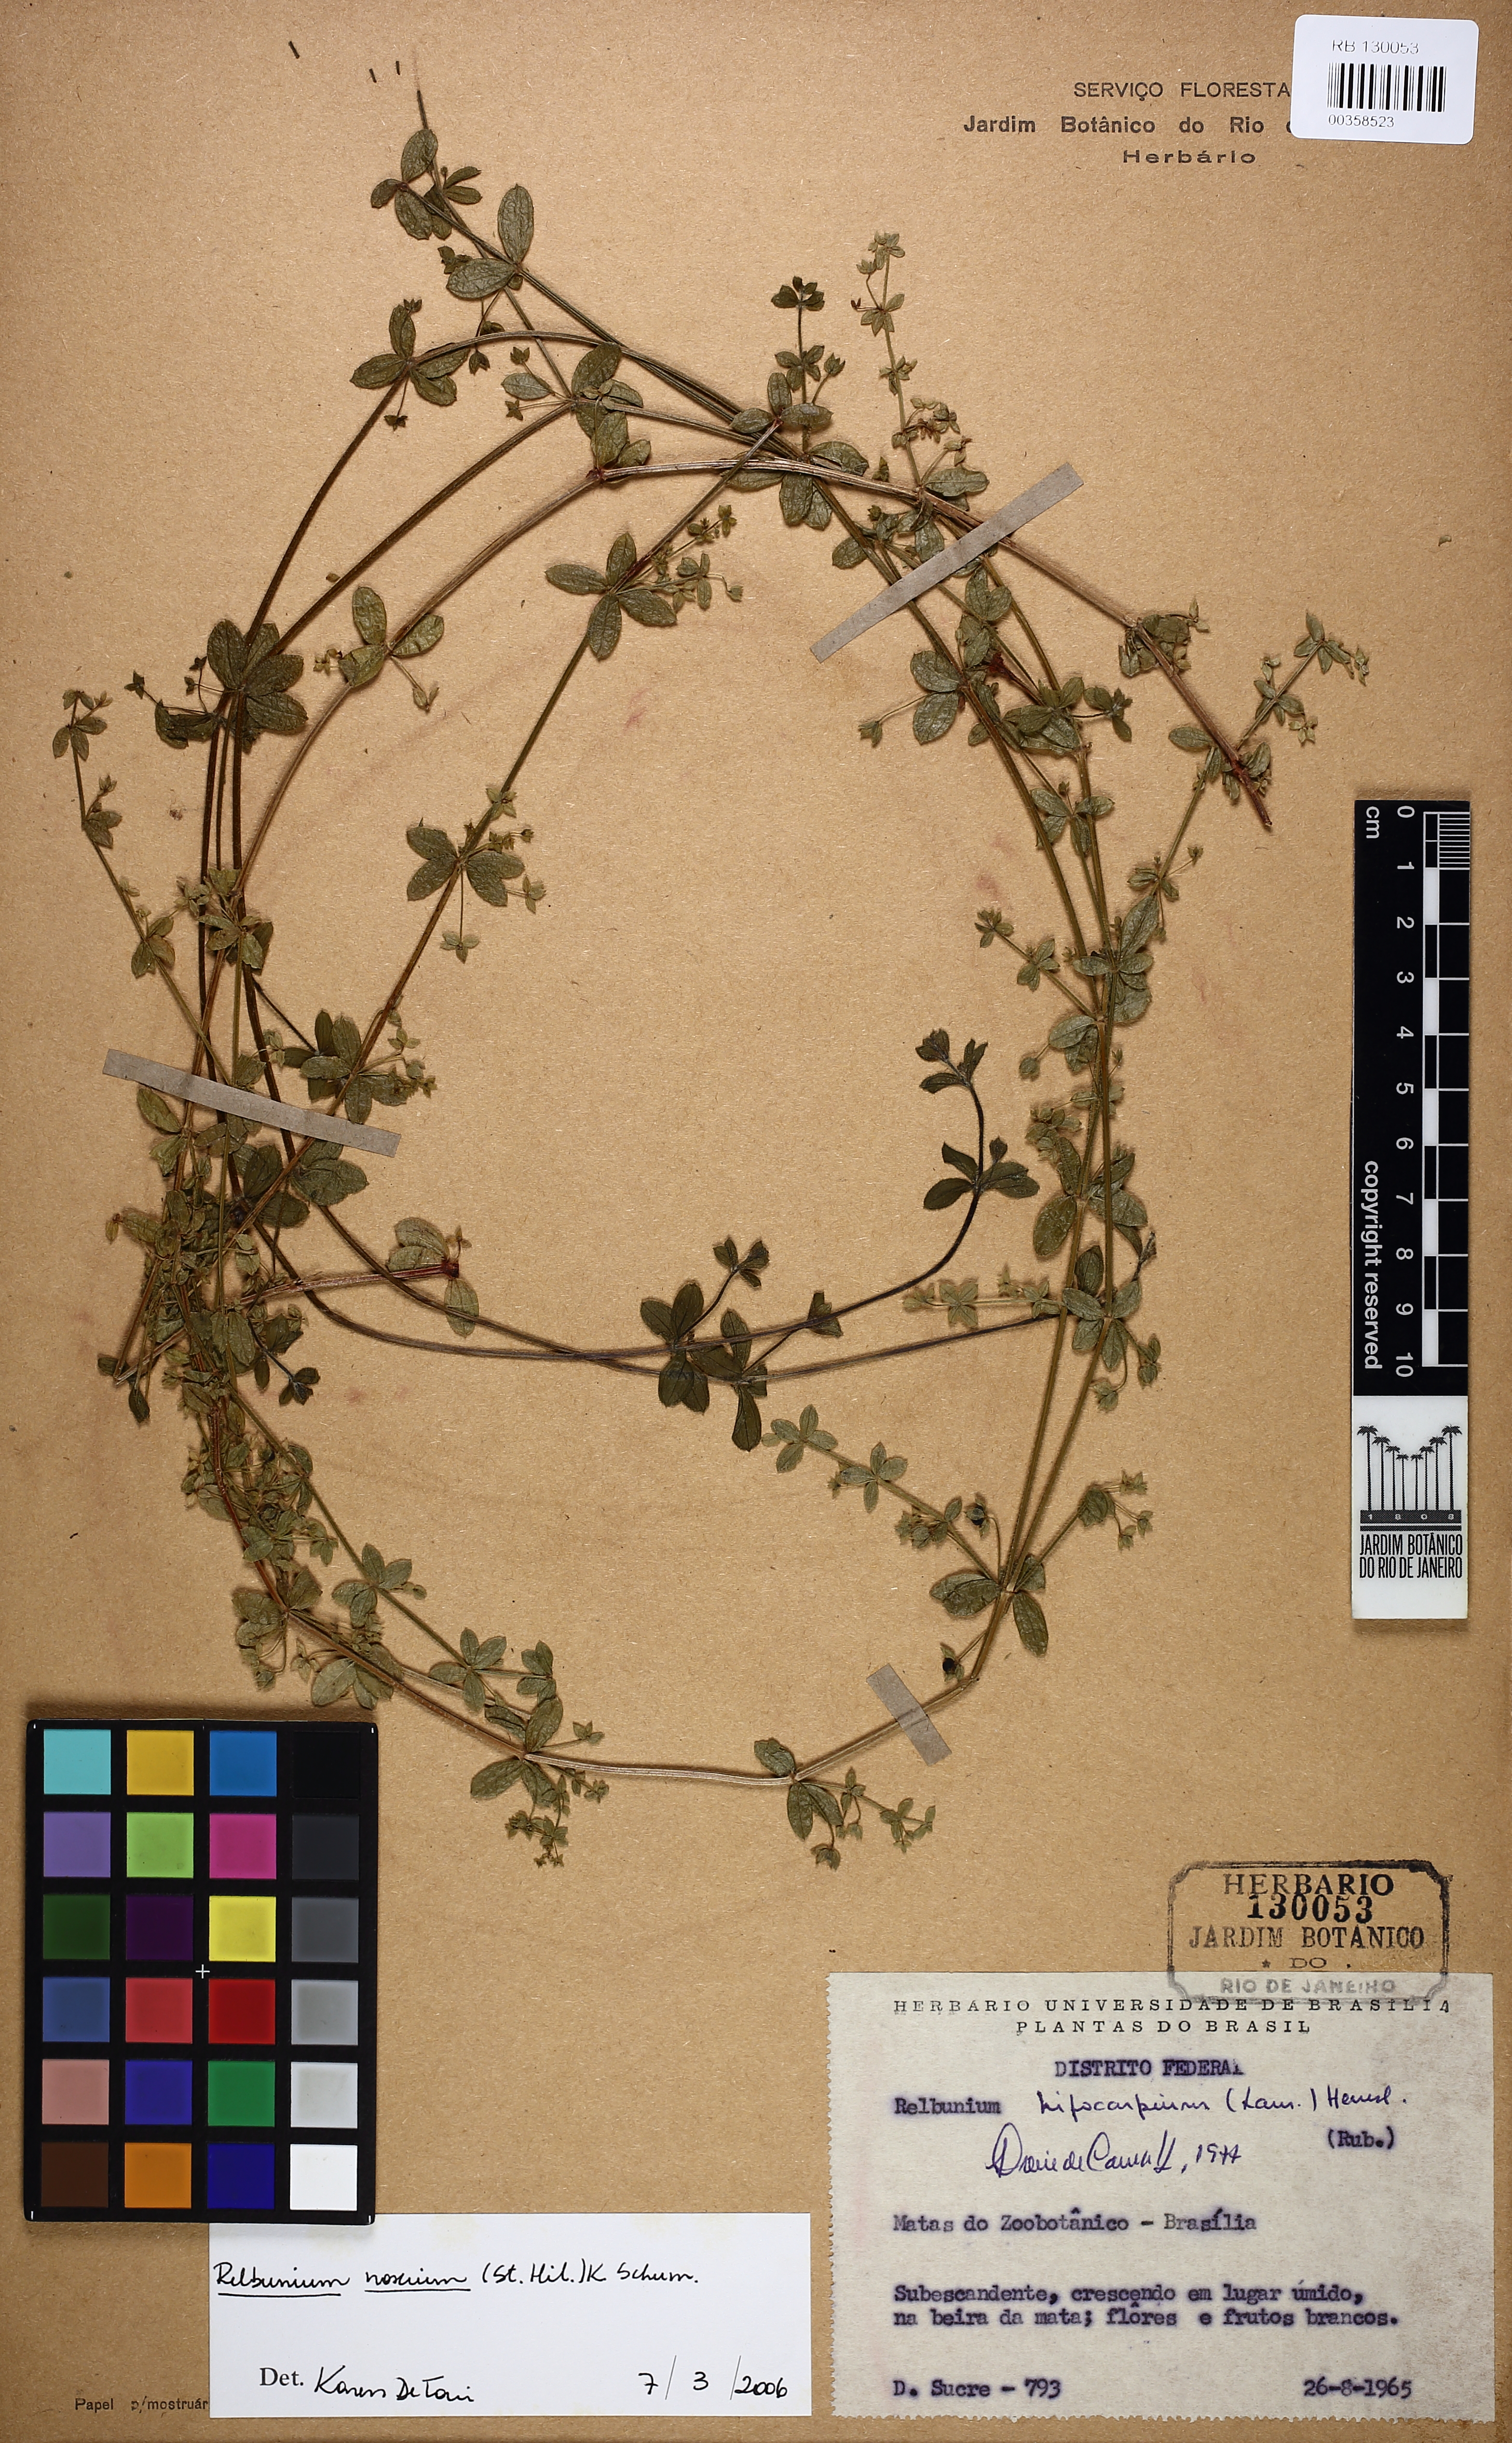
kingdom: Plantae
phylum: Tracheophyta
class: Magnoliopsida
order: Gentianales
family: Rubiaceae
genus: Galium
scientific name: Galium noxium
